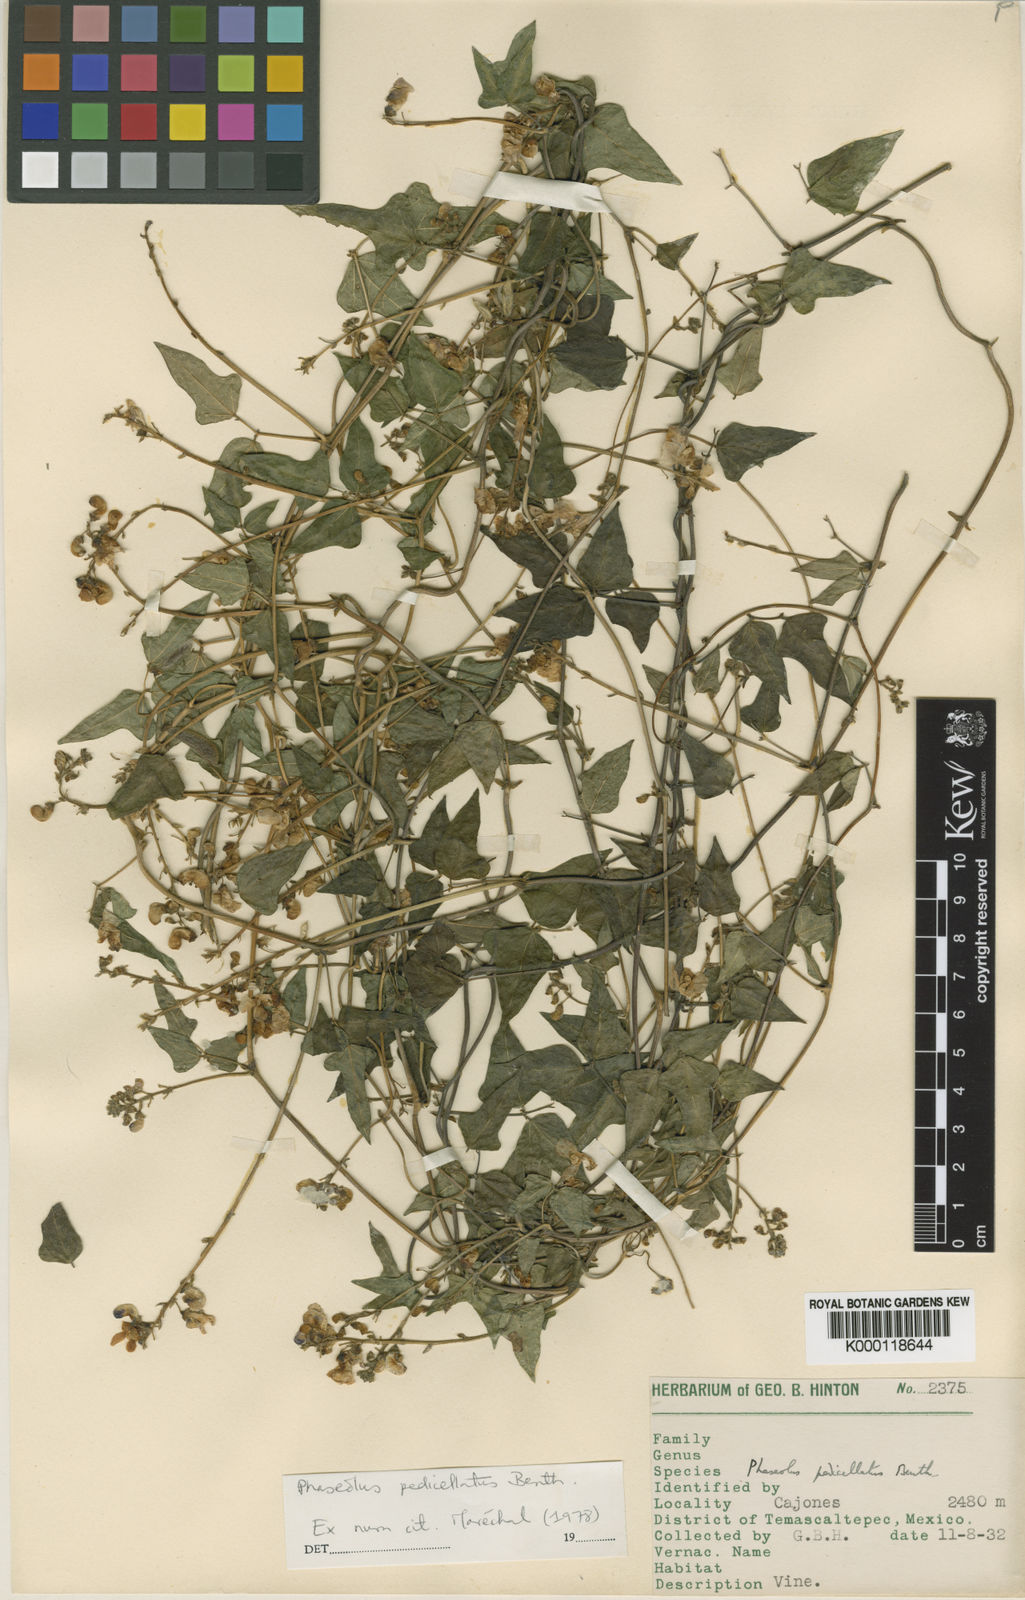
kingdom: Plantae
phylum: Tracheophyta
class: Magnoliopsida
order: Fabales
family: Fabaceae
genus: Phaseolus
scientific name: Phaseolus pedicellatus
